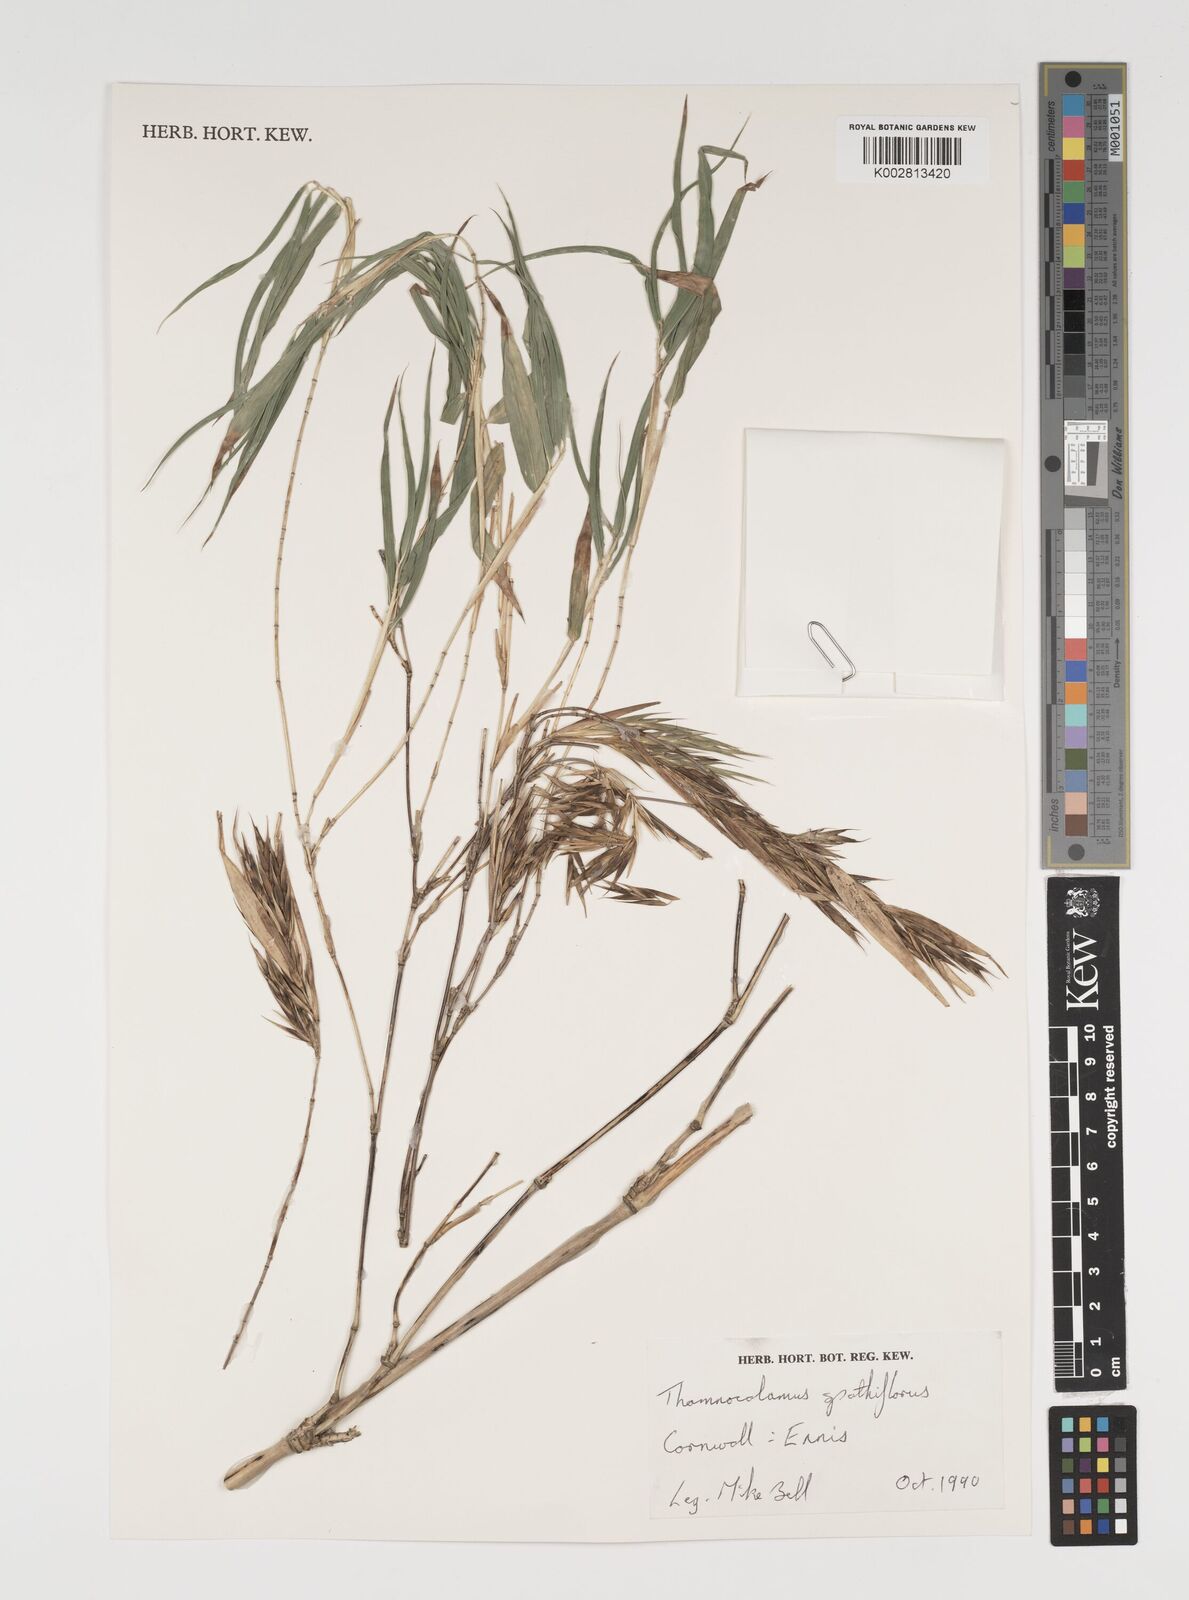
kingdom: Plantae
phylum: Tracheophyta
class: Liliopsida
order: Poales
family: Poaceae
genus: Thamnocalamus
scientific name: Thamnocalamus spathiflorus
